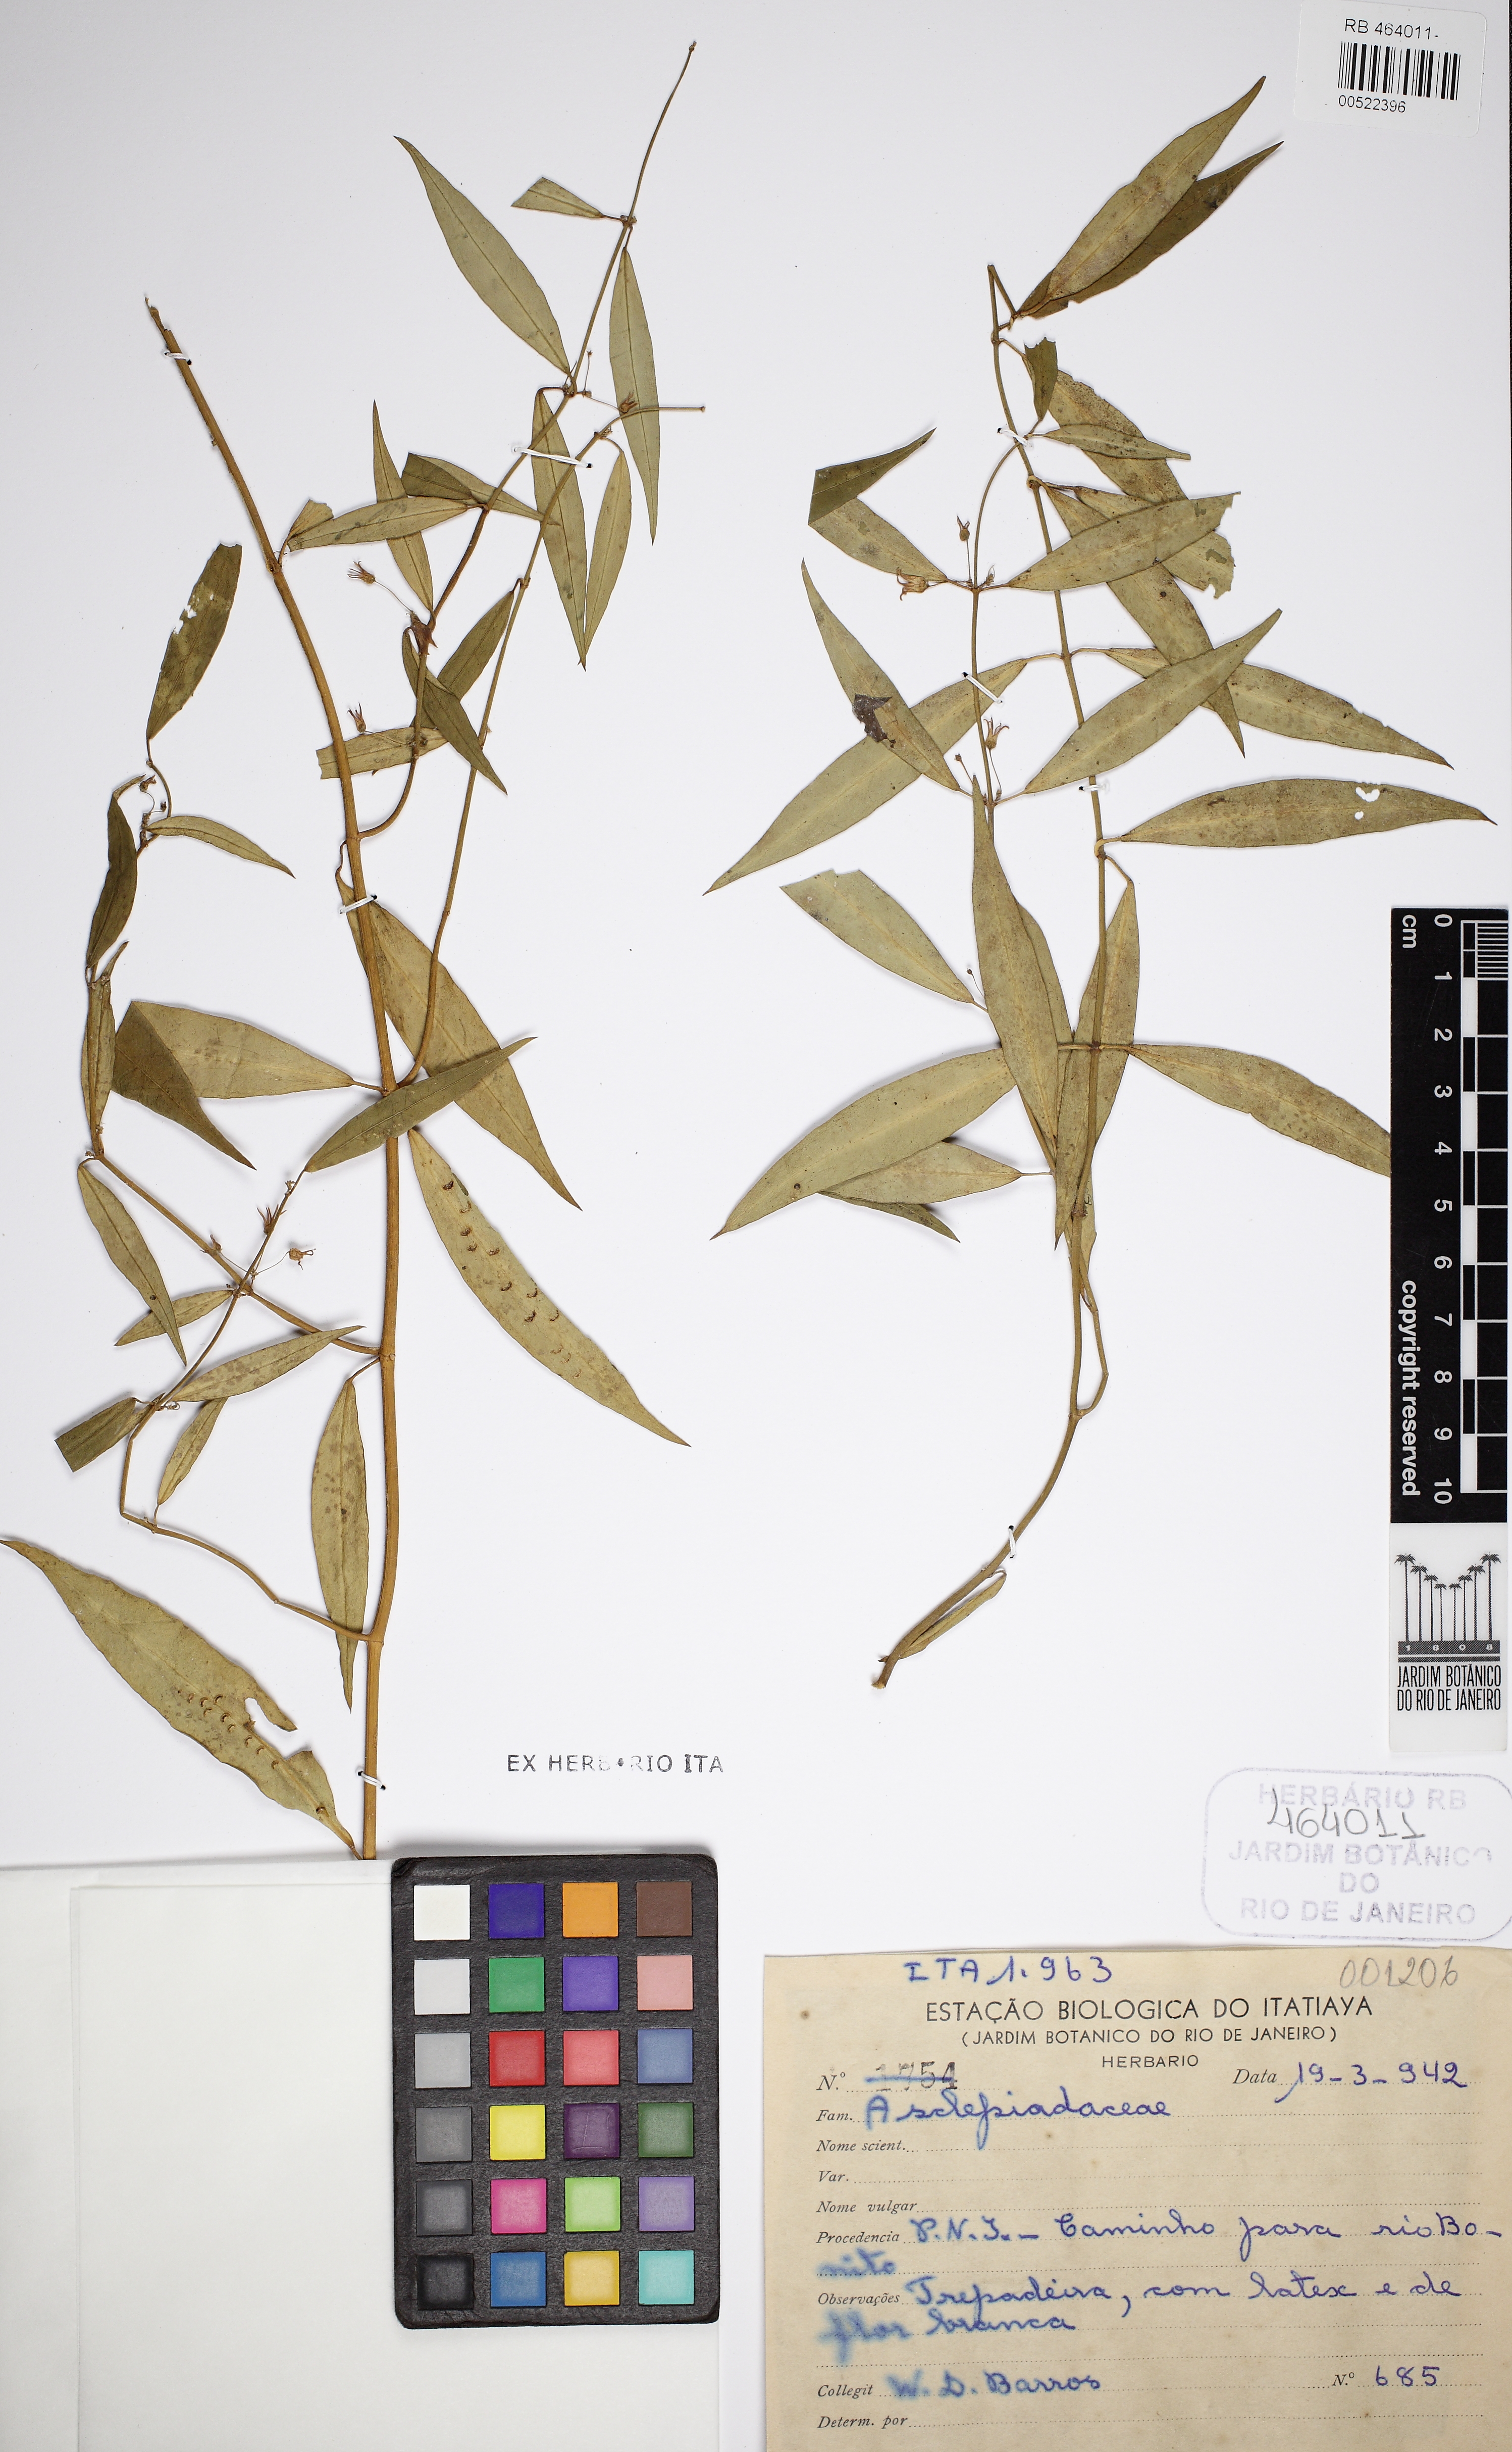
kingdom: Plantae
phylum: Tracheophyta
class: Magnoliopsida
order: Gentianales
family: Apocynaceae
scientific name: Apocynaceae
